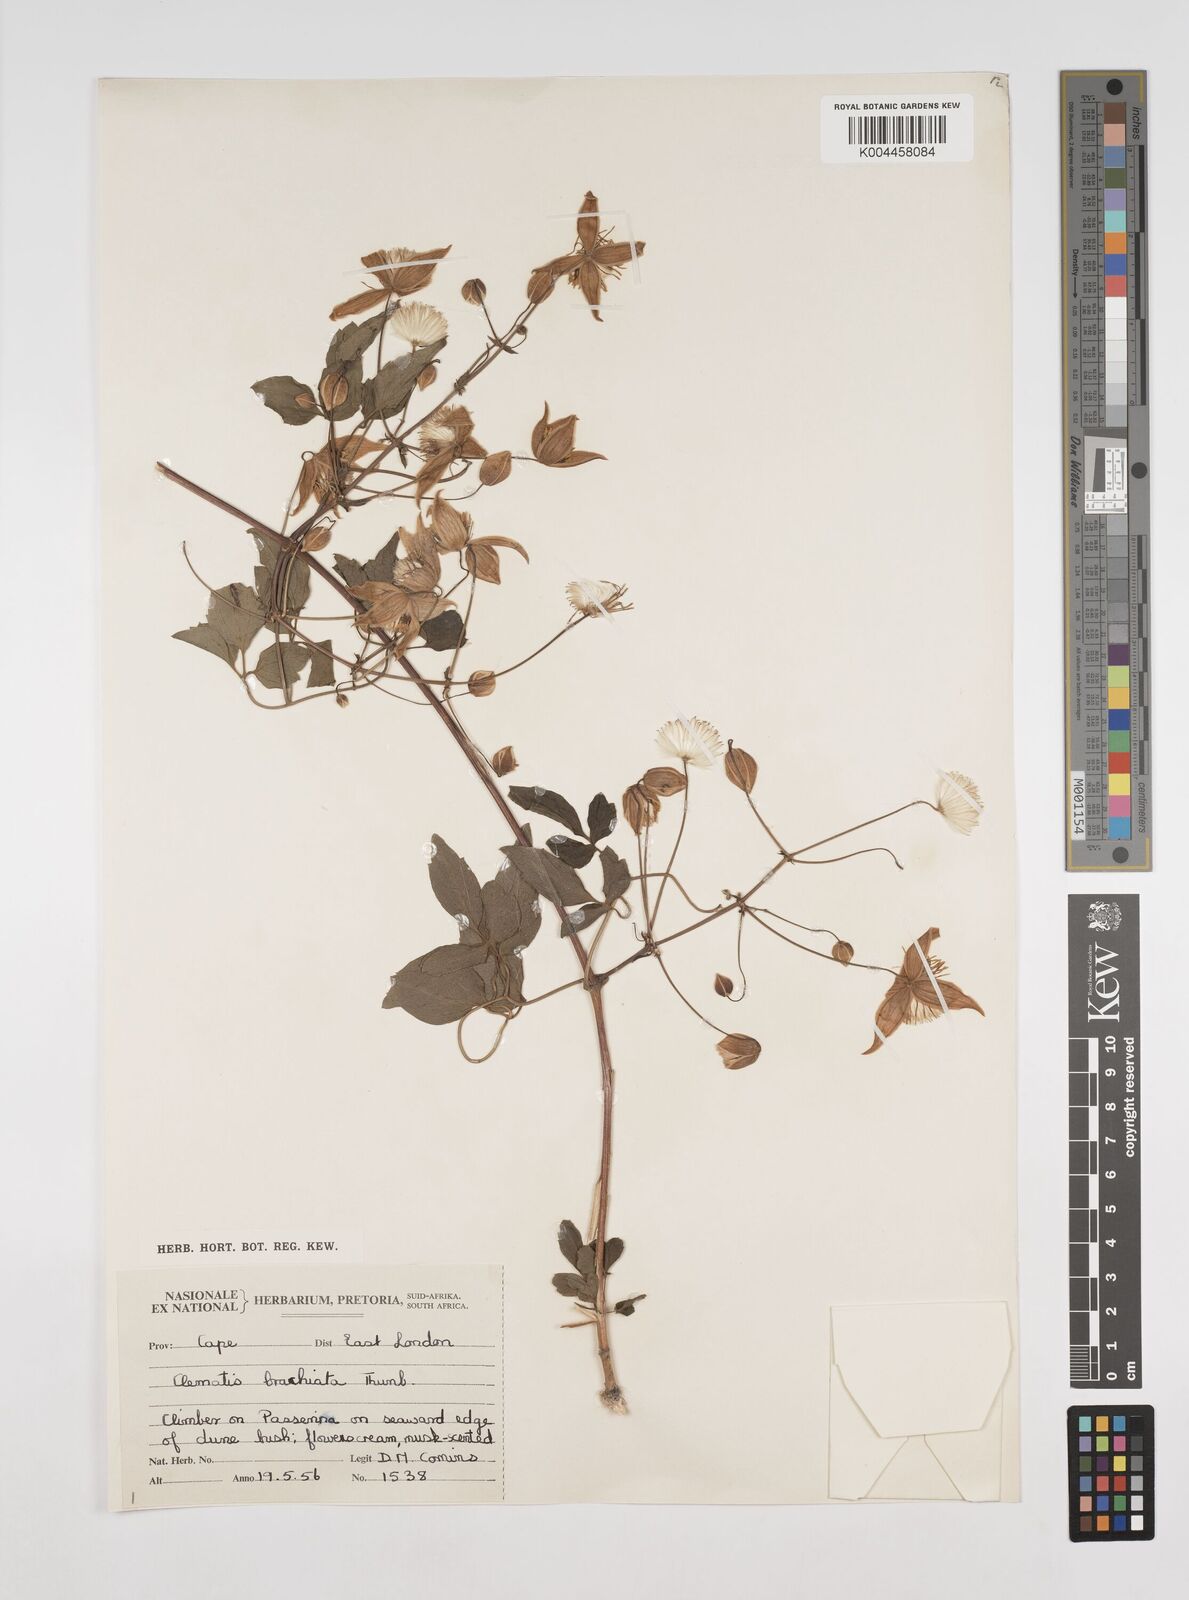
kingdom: Plantae
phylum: Tracheophyta
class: Magnoliopsida
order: Ranunculales
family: Ranunculaceae
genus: Clematis
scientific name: Clematis brachiata
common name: Traveler's-joy
